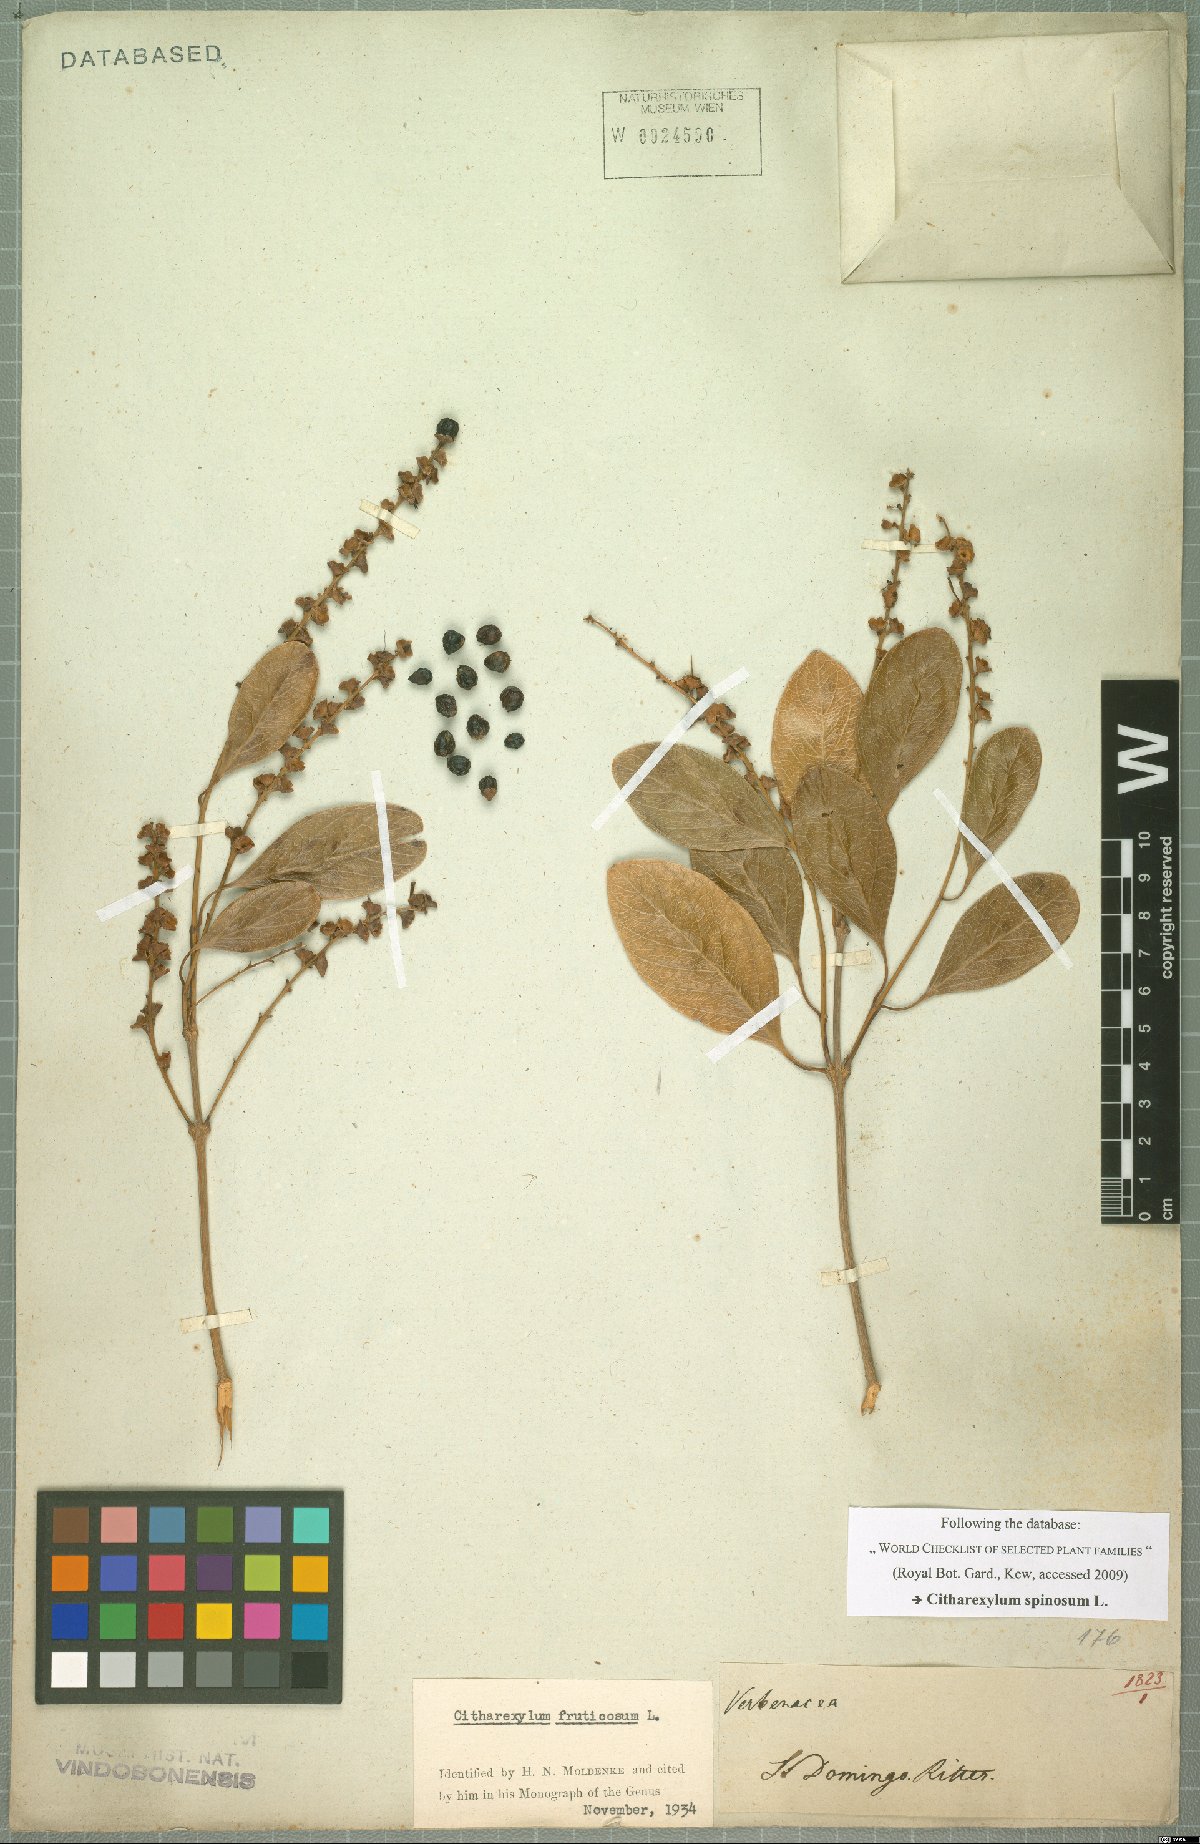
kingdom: Plantae
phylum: Tracheophyta
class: Magnoliopsida
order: Lamiales
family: Verbenaceae
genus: Citharexylum
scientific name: Citharexylum spinosum
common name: Fiddlewood
